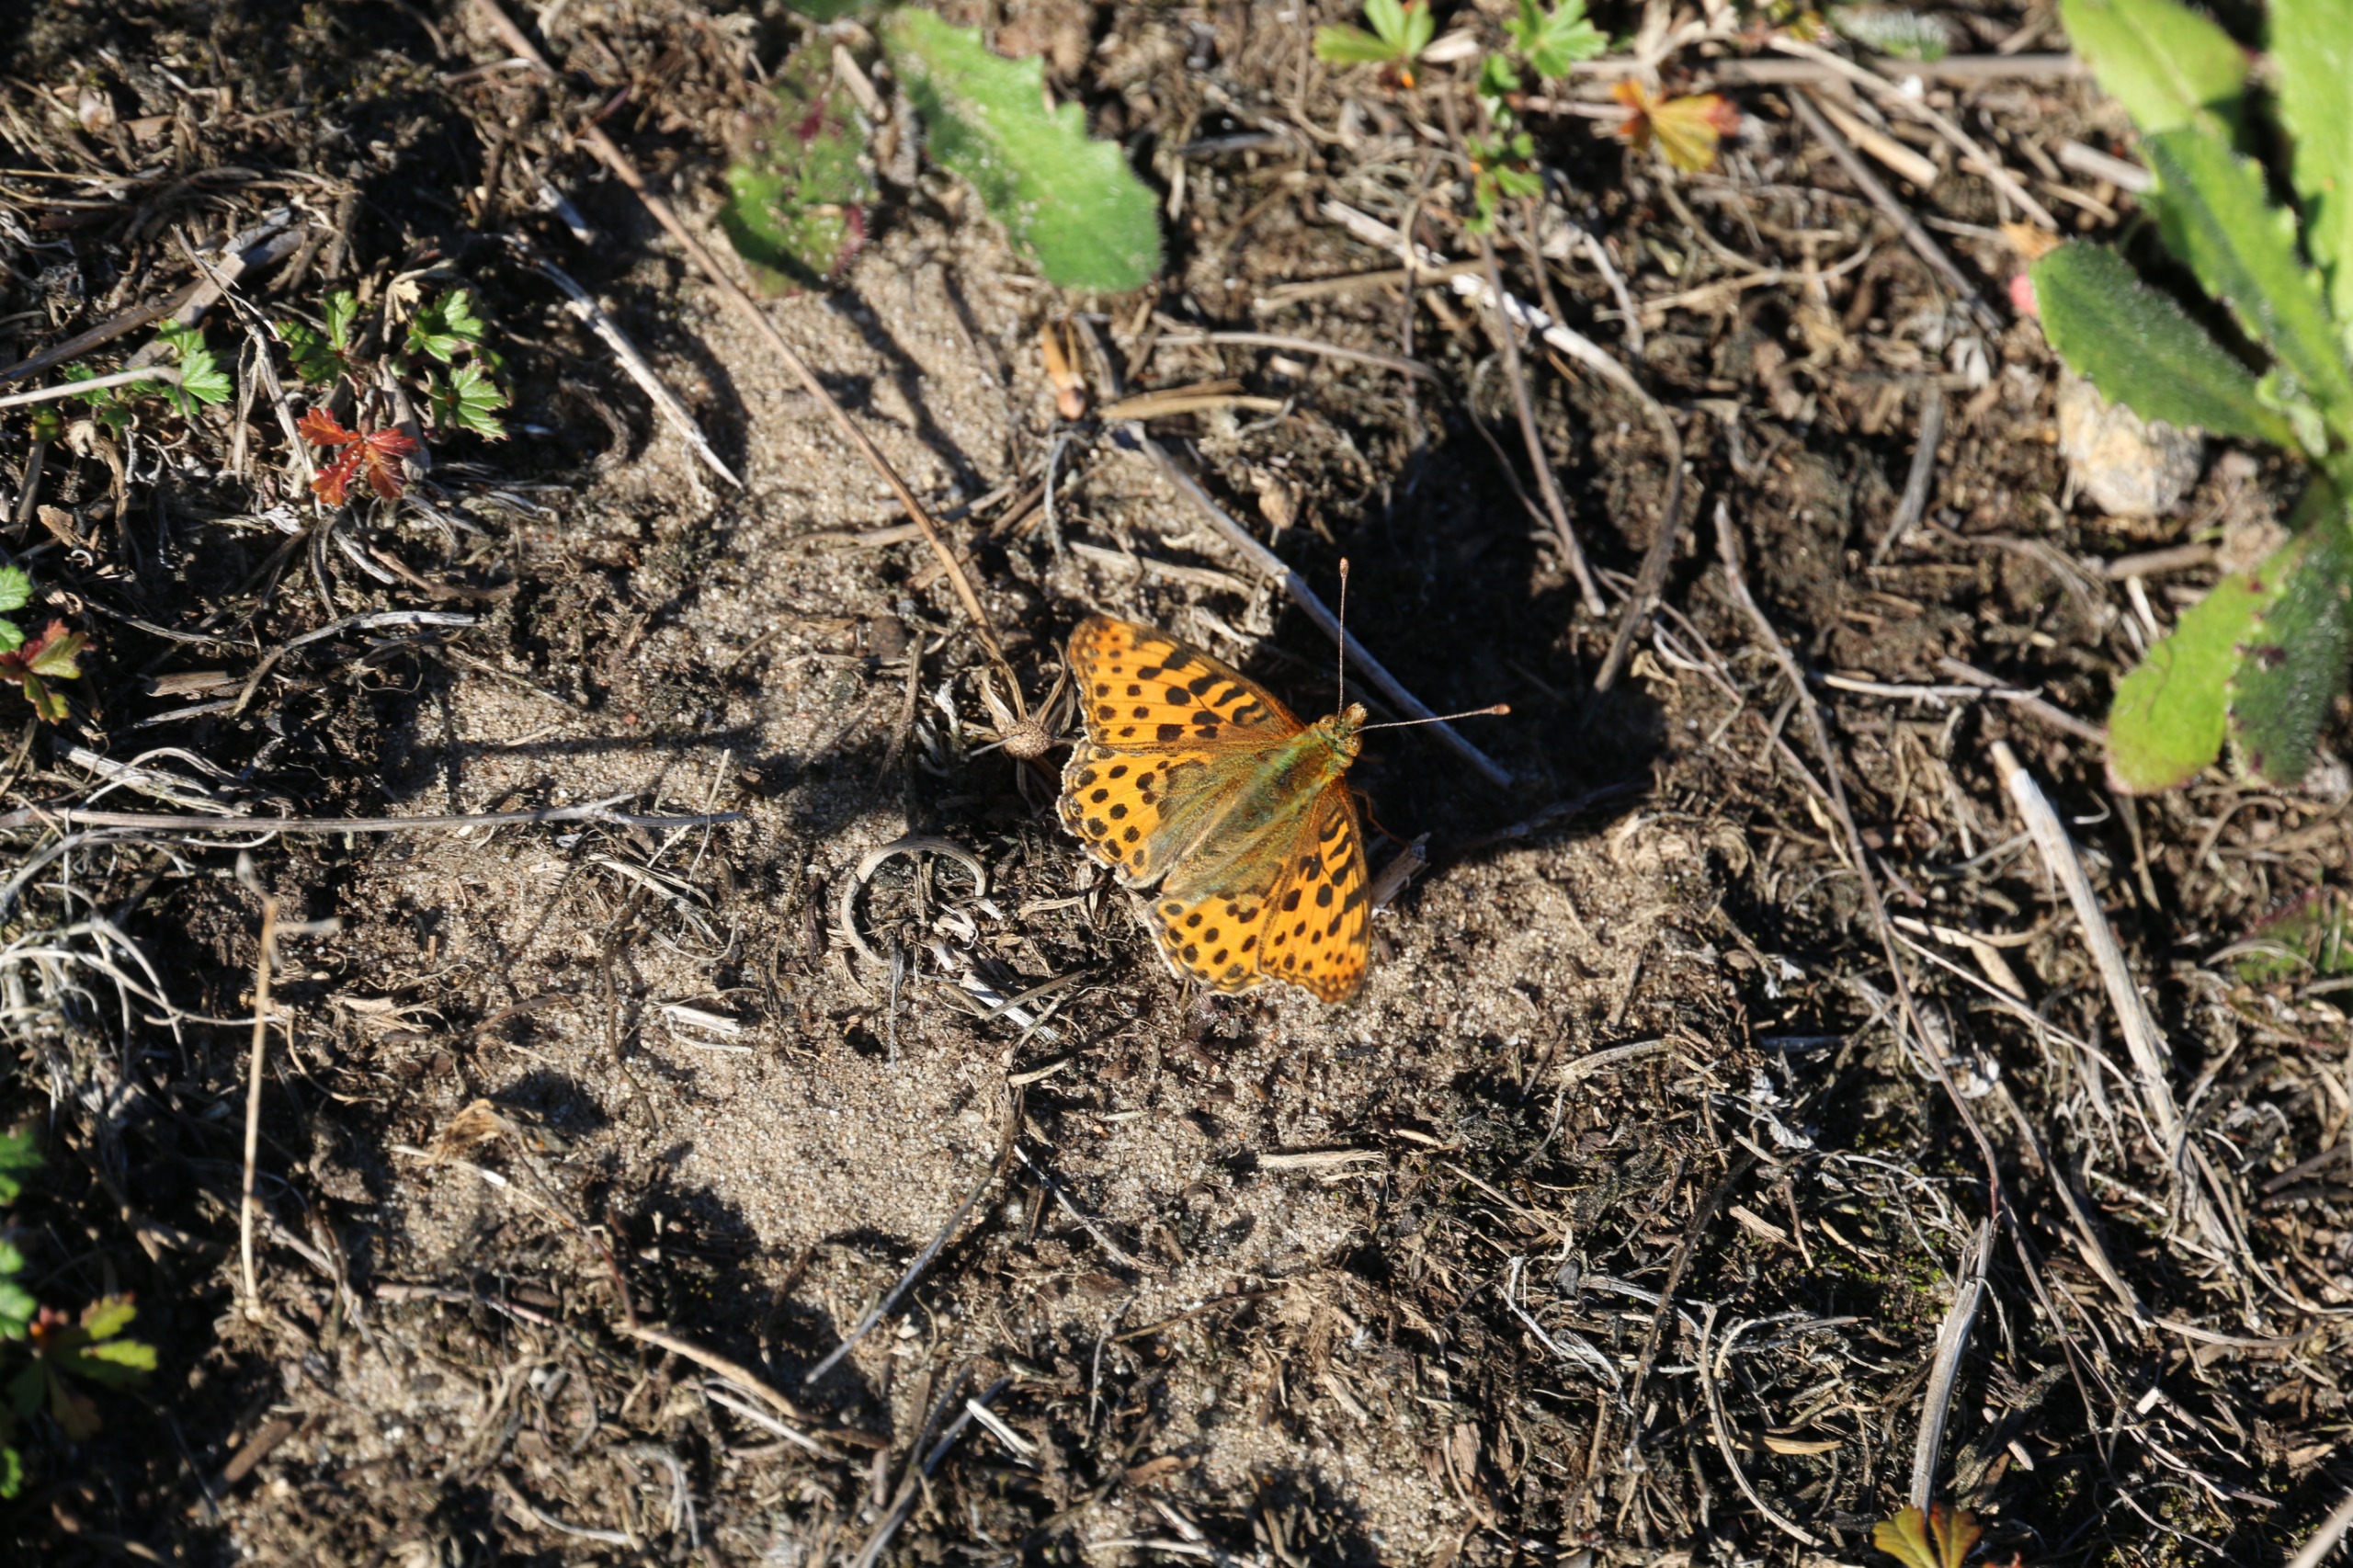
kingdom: Animalia
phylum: Arthropoda
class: Insecta
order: Lepidoptera
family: Nymphalidae
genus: Issoria
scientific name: Issoria lathonia
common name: Storplettet perlemorsommerfugl
